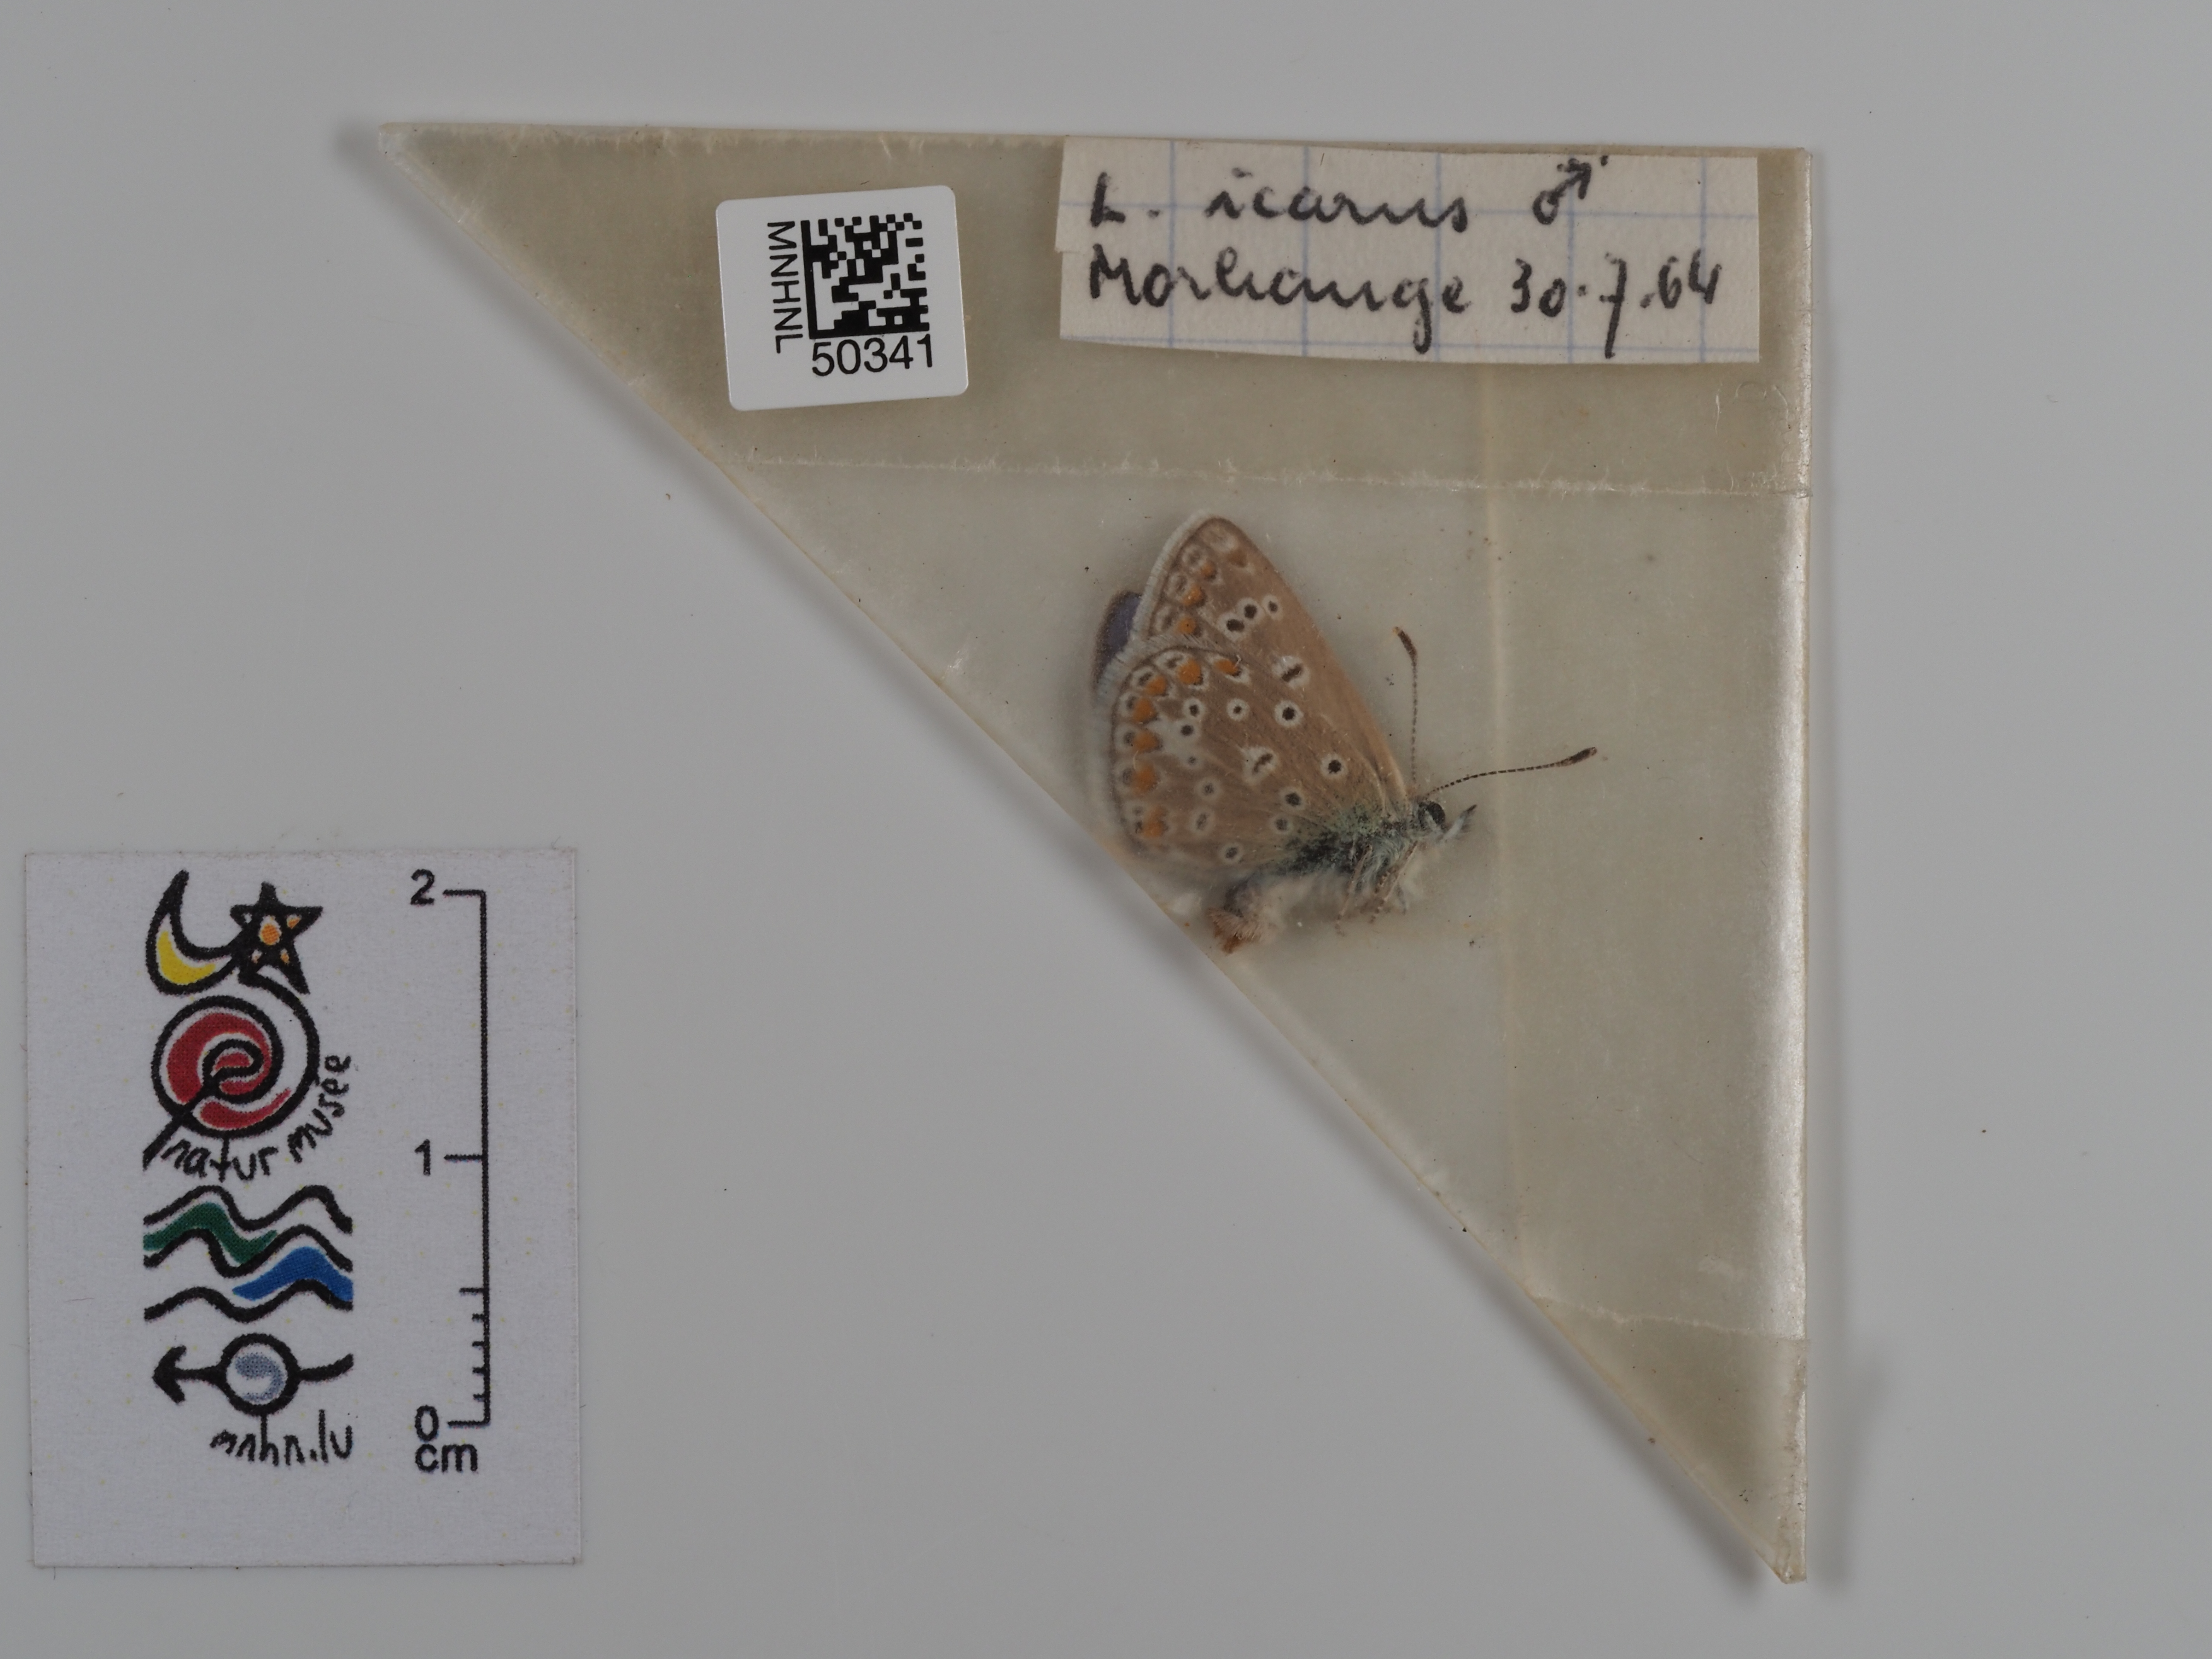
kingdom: Animalia
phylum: Arthropoda
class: Insecta
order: Lepidoptera
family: Lycaenidae
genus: Polyommatus
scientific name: Polyommatus icarus
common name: Common blue
